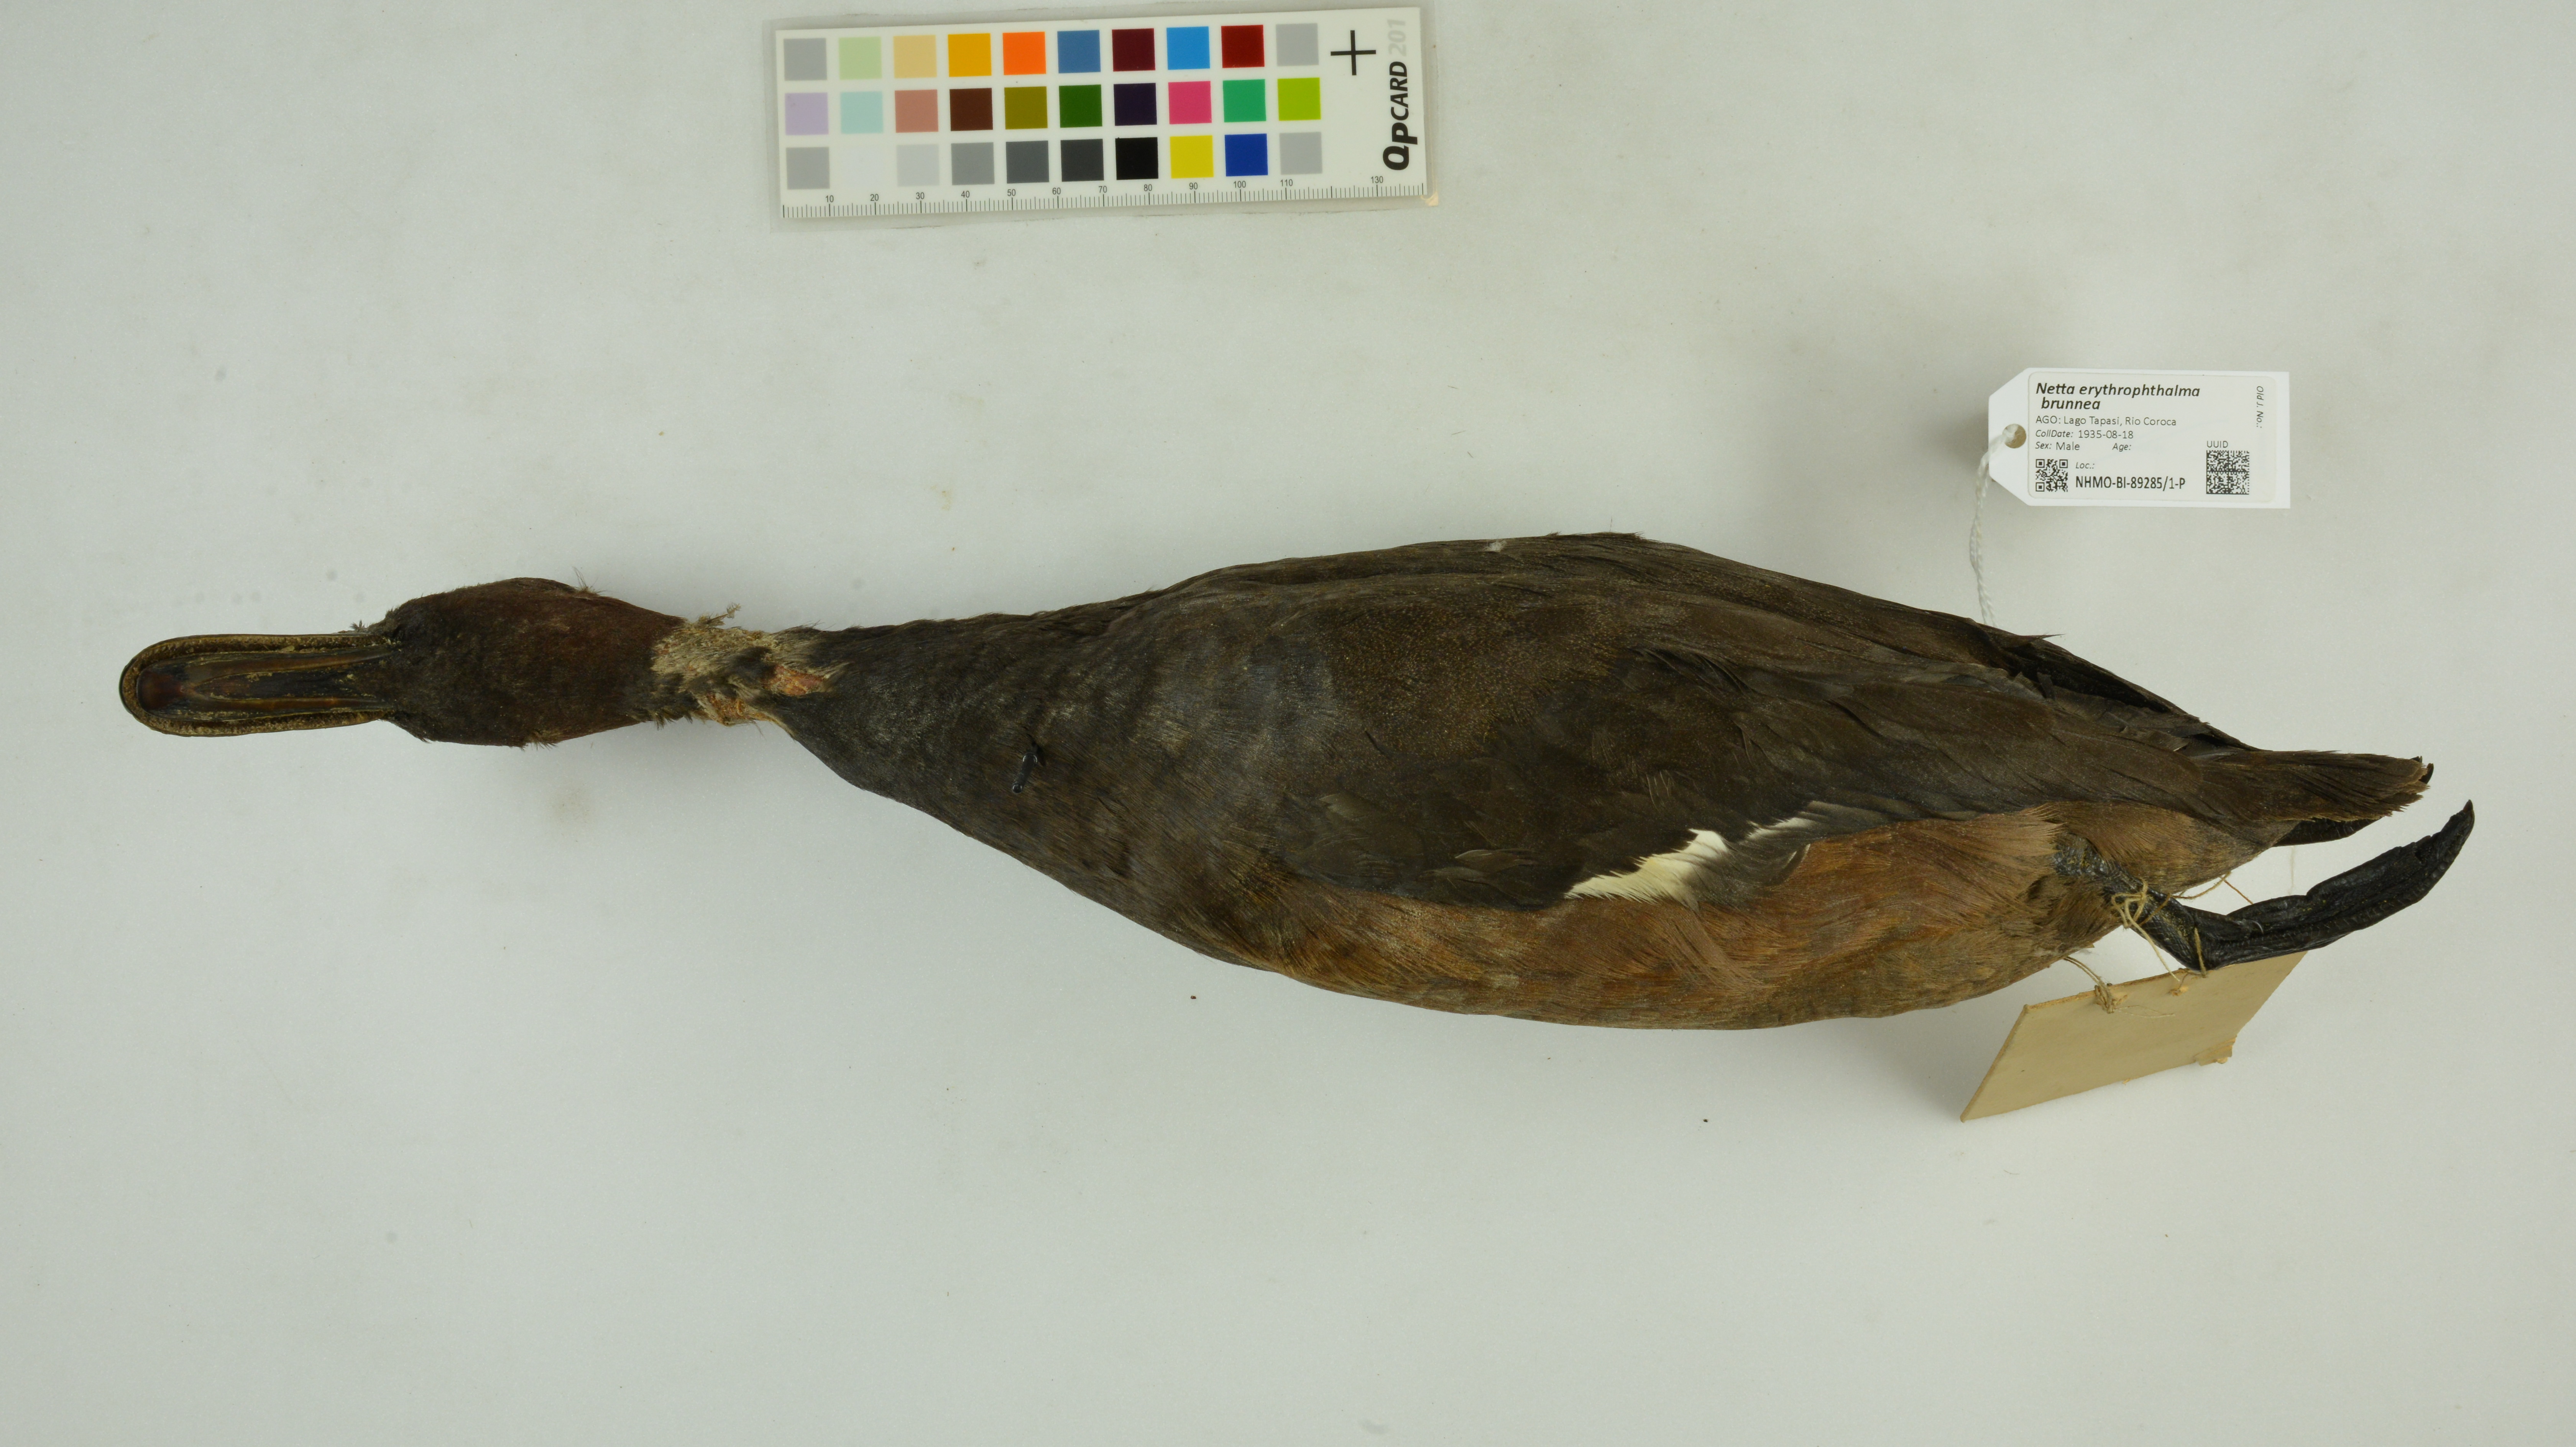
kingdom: Animalia
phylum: Chordata
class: Aves
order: Anseriformes
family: Anatidae
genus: Netta
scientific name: Netta erythrophthalma
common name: Southern pochard
